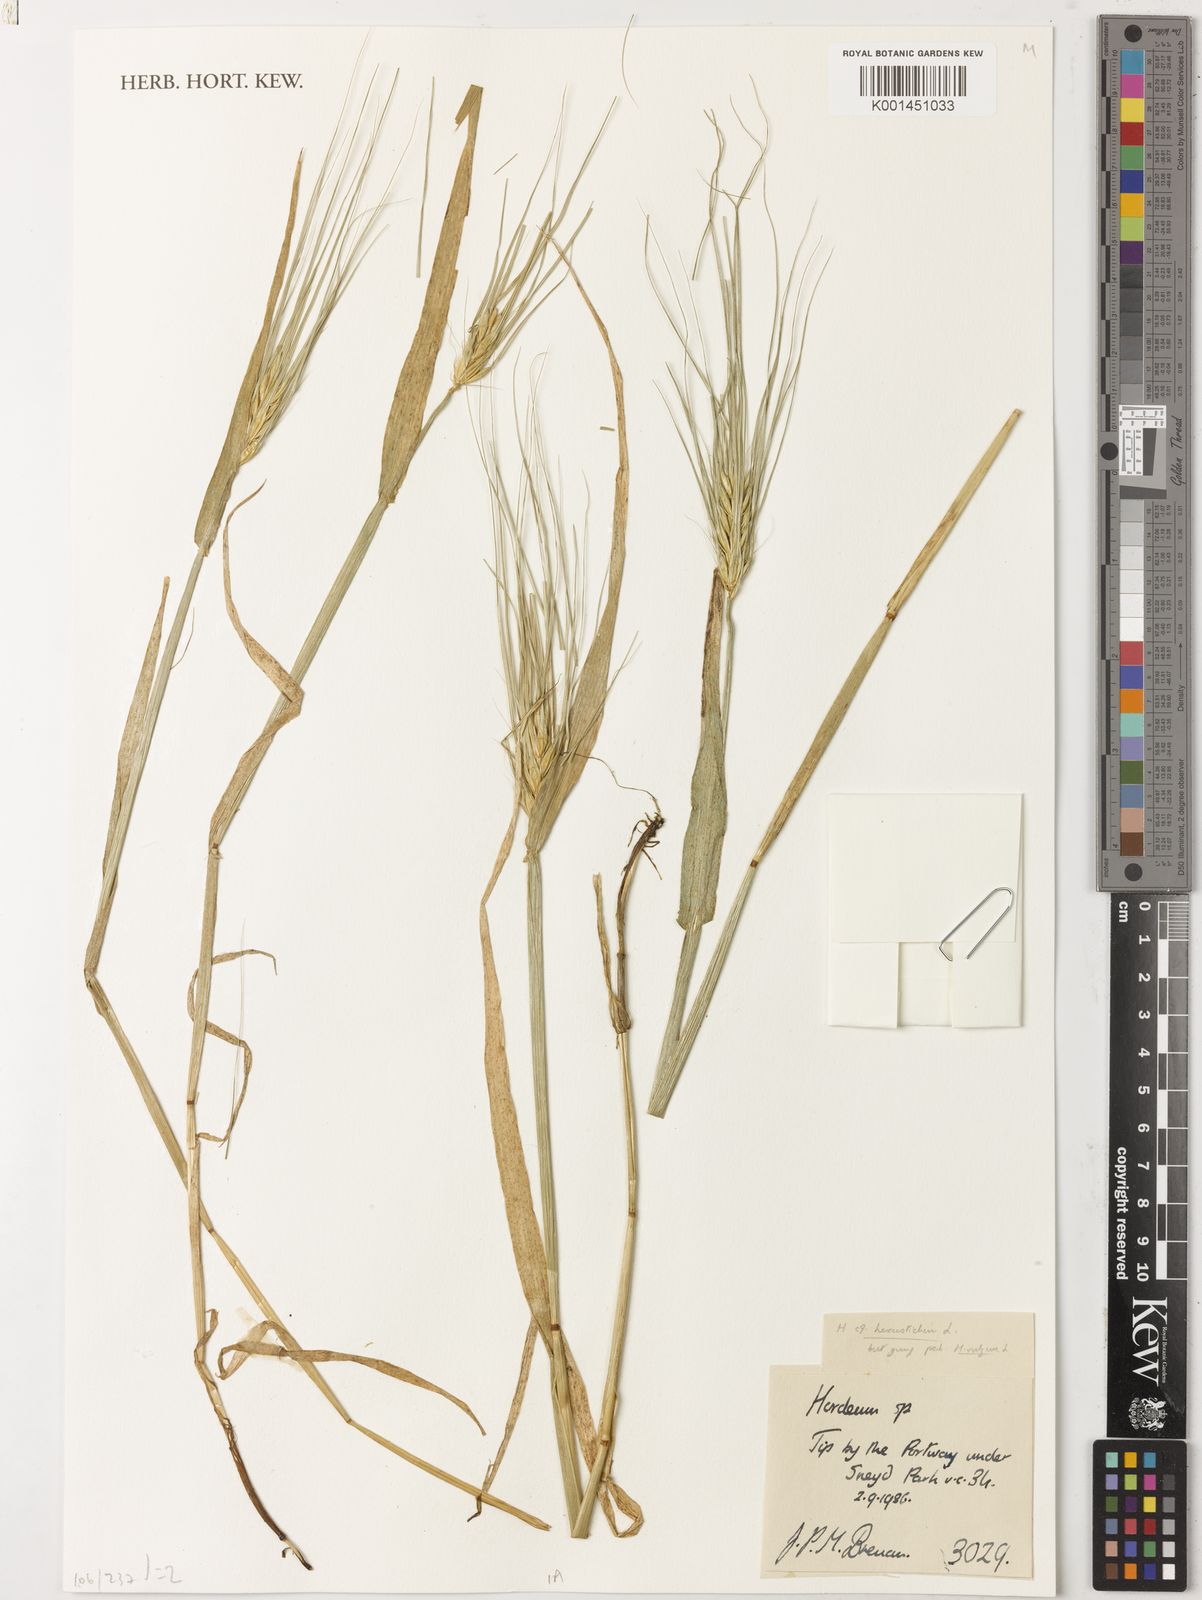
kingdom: Plantae
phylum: Tracheophyta
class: Liliopsida
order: Poales
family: Poaceae
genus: Hordeum
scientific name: Hordeum vulgare
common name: Common barley
